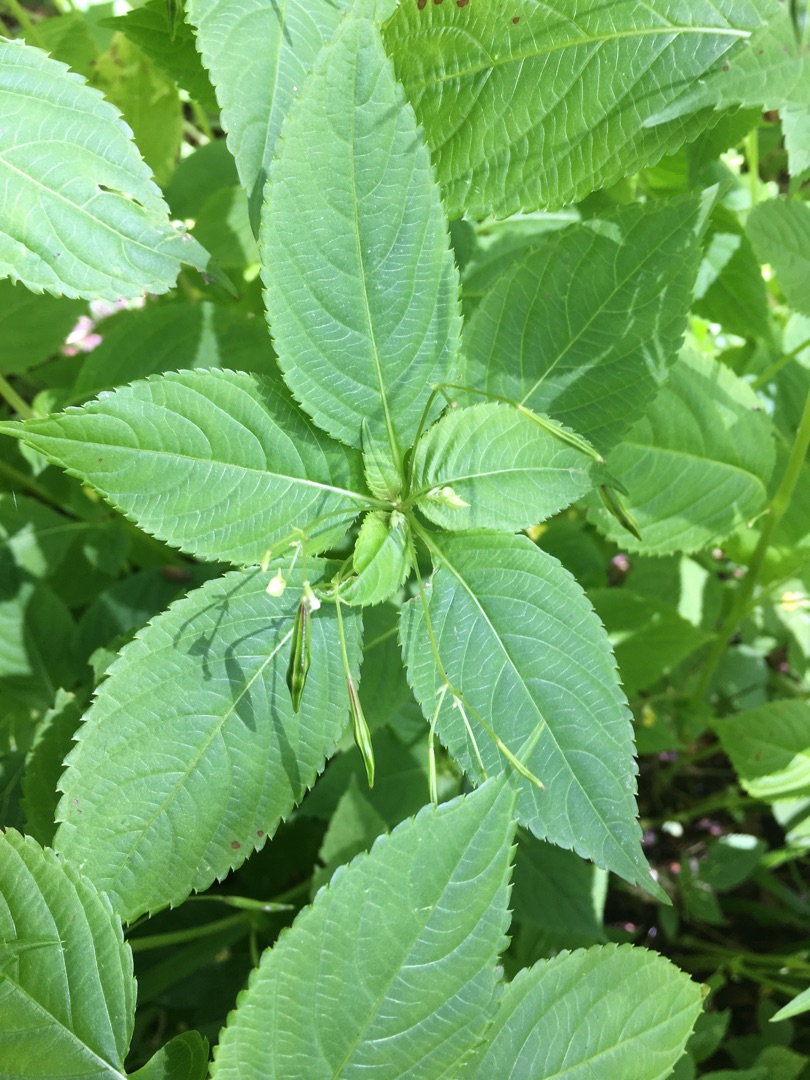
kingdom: Plantae
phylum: Tracheophyta
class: Magnoliopsida
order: Ericales
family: Balsaminaceae
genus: Impatiens
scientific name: Impatiens parviflora
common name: Småblomstret balsamin
